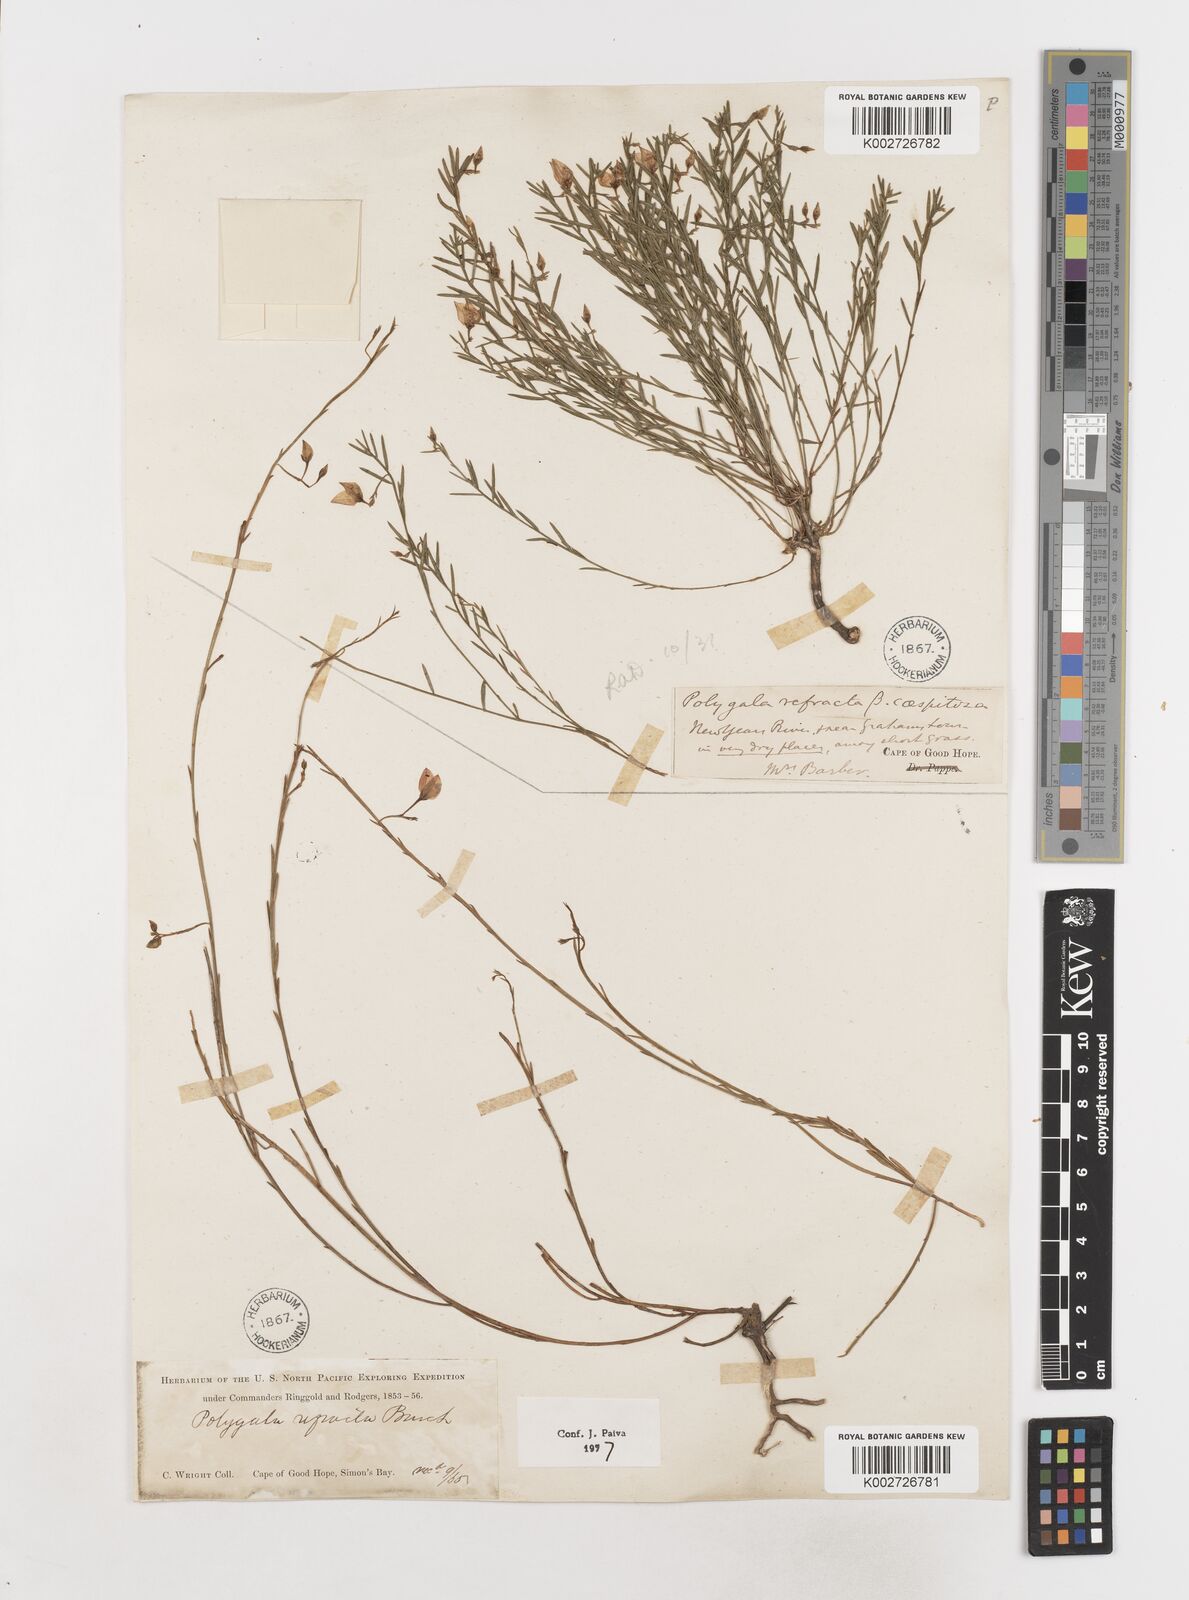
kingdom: Plantae
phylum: Tracheophyta
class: Magnoliopsida
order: Fabales
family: Polygalaceae
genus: Polygala
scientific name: Polygala refracta
